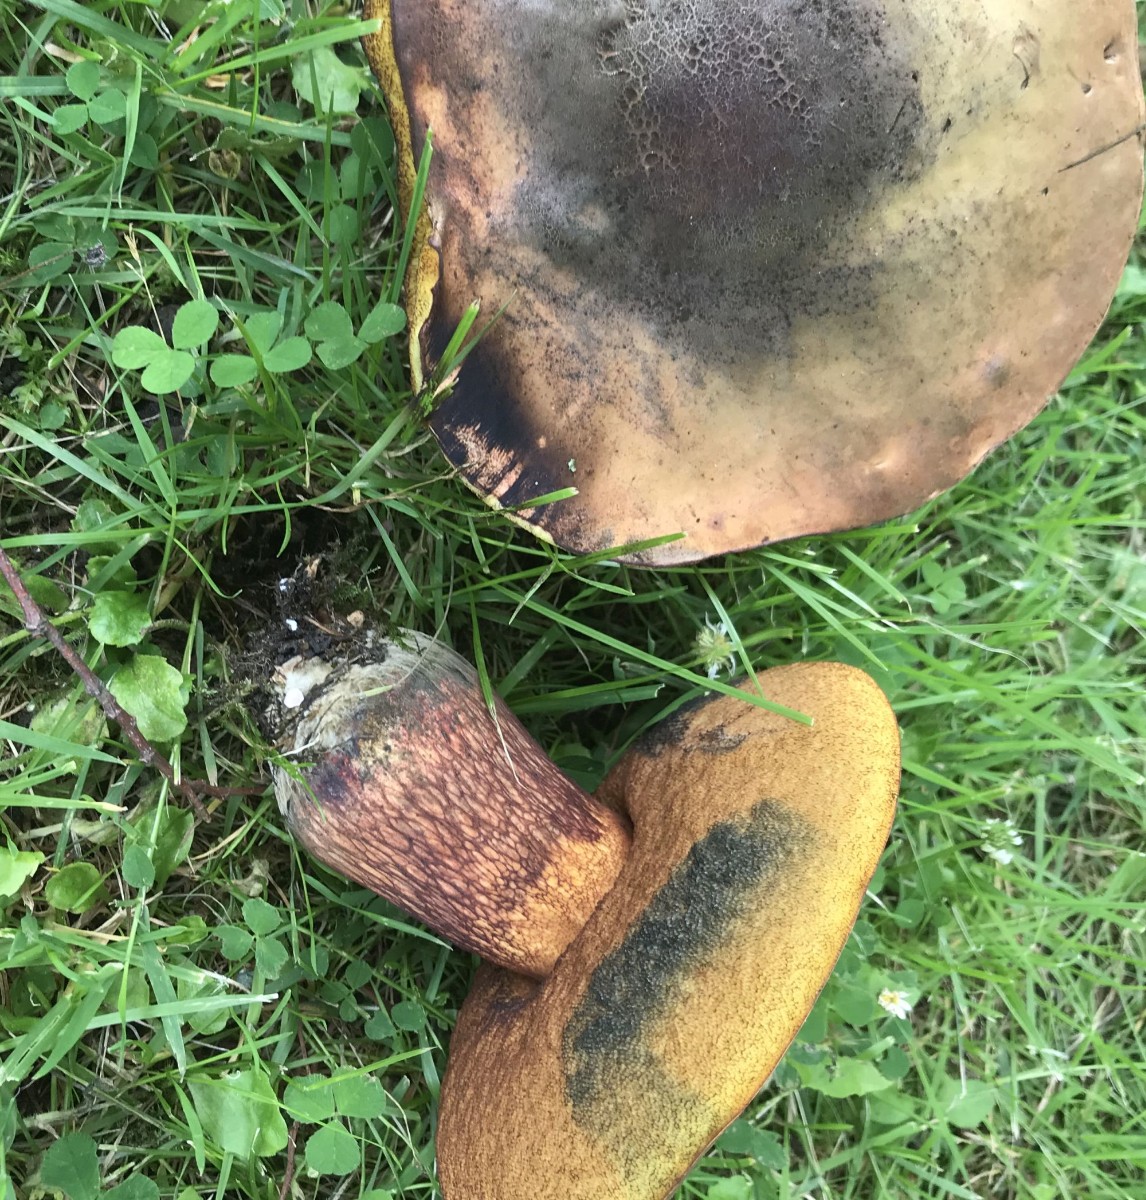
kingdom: Fungi
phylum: Basidiomycota
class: Agaricomycetes
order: Boletales
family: Boletaceae
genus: Suillellus
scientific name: Suillellus luridus
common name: netstokket indigorørhat
